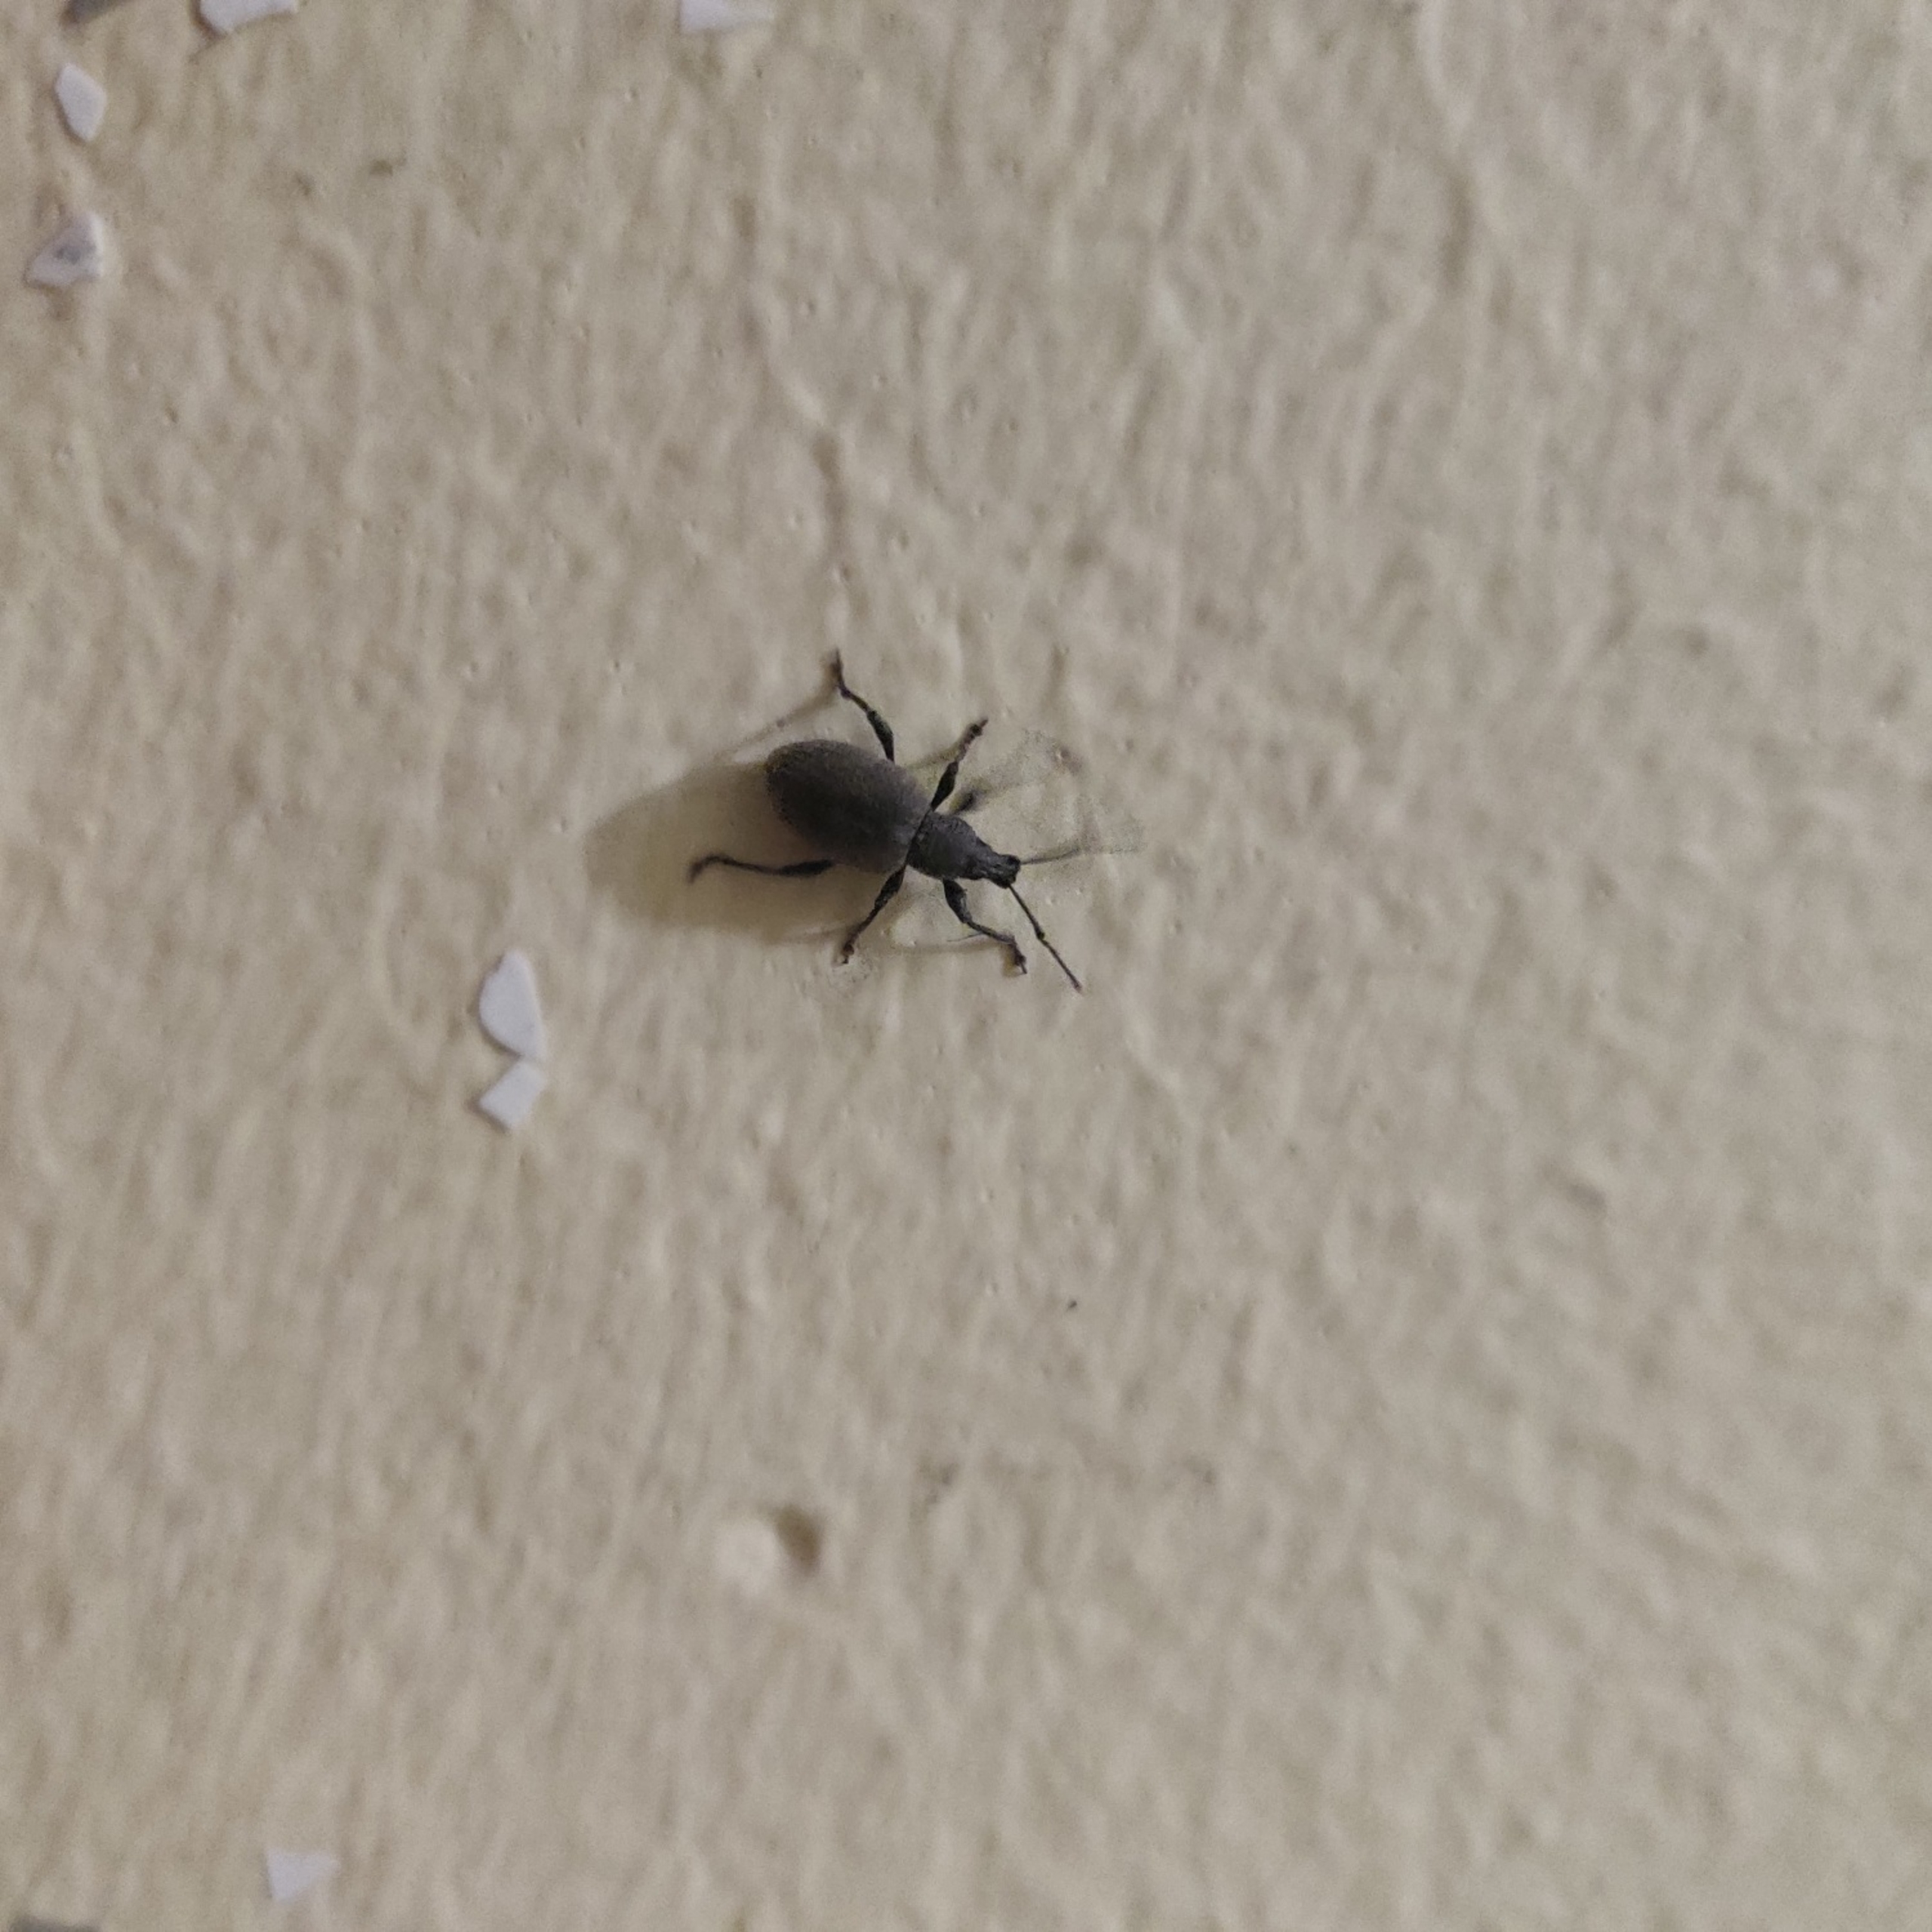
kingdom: Animalia
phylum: Arthropoda
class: Insecta
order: Coleoptera
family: Curculionidae
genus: Otiorhynchus
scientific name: Otiorhynchus sulcatus
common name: Væksthussnudebille
